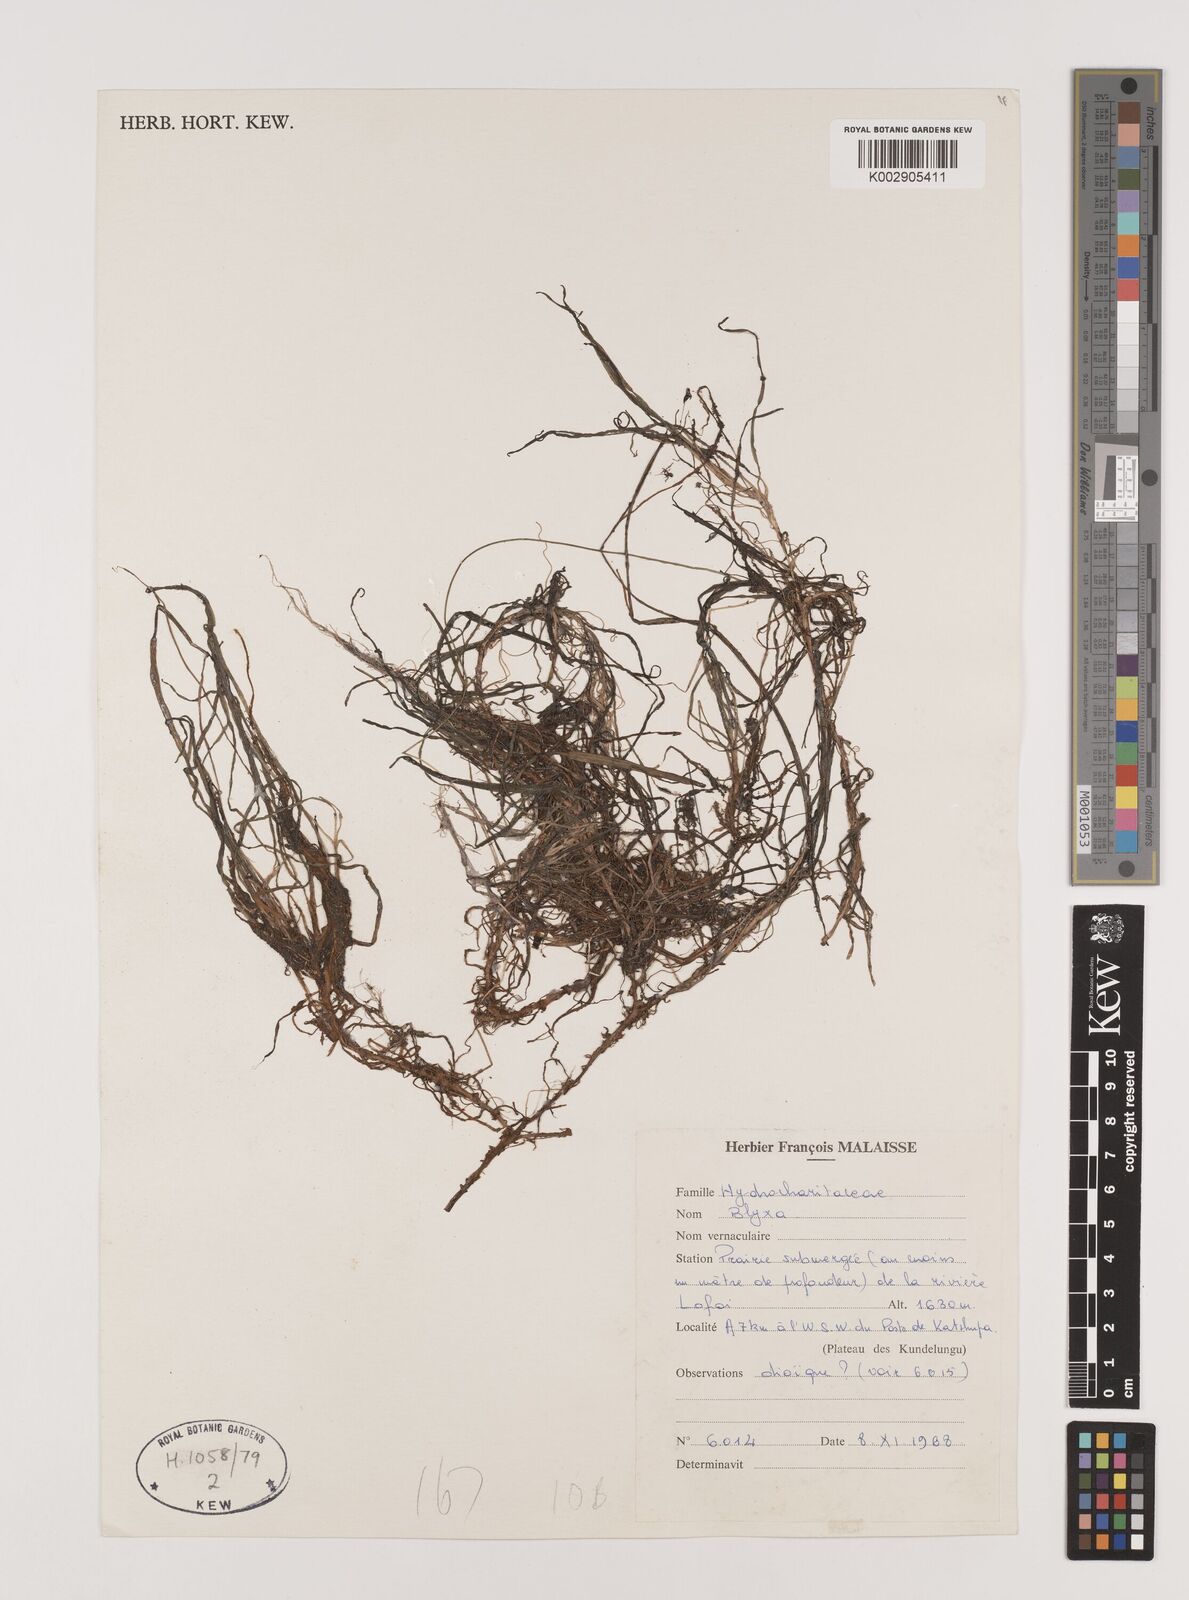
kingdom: Plantae
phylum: Tracheophyta
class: Liliopsida
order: Alismatales
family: Hydrocharitaceae
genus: Blyxa
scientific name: Blyxa
